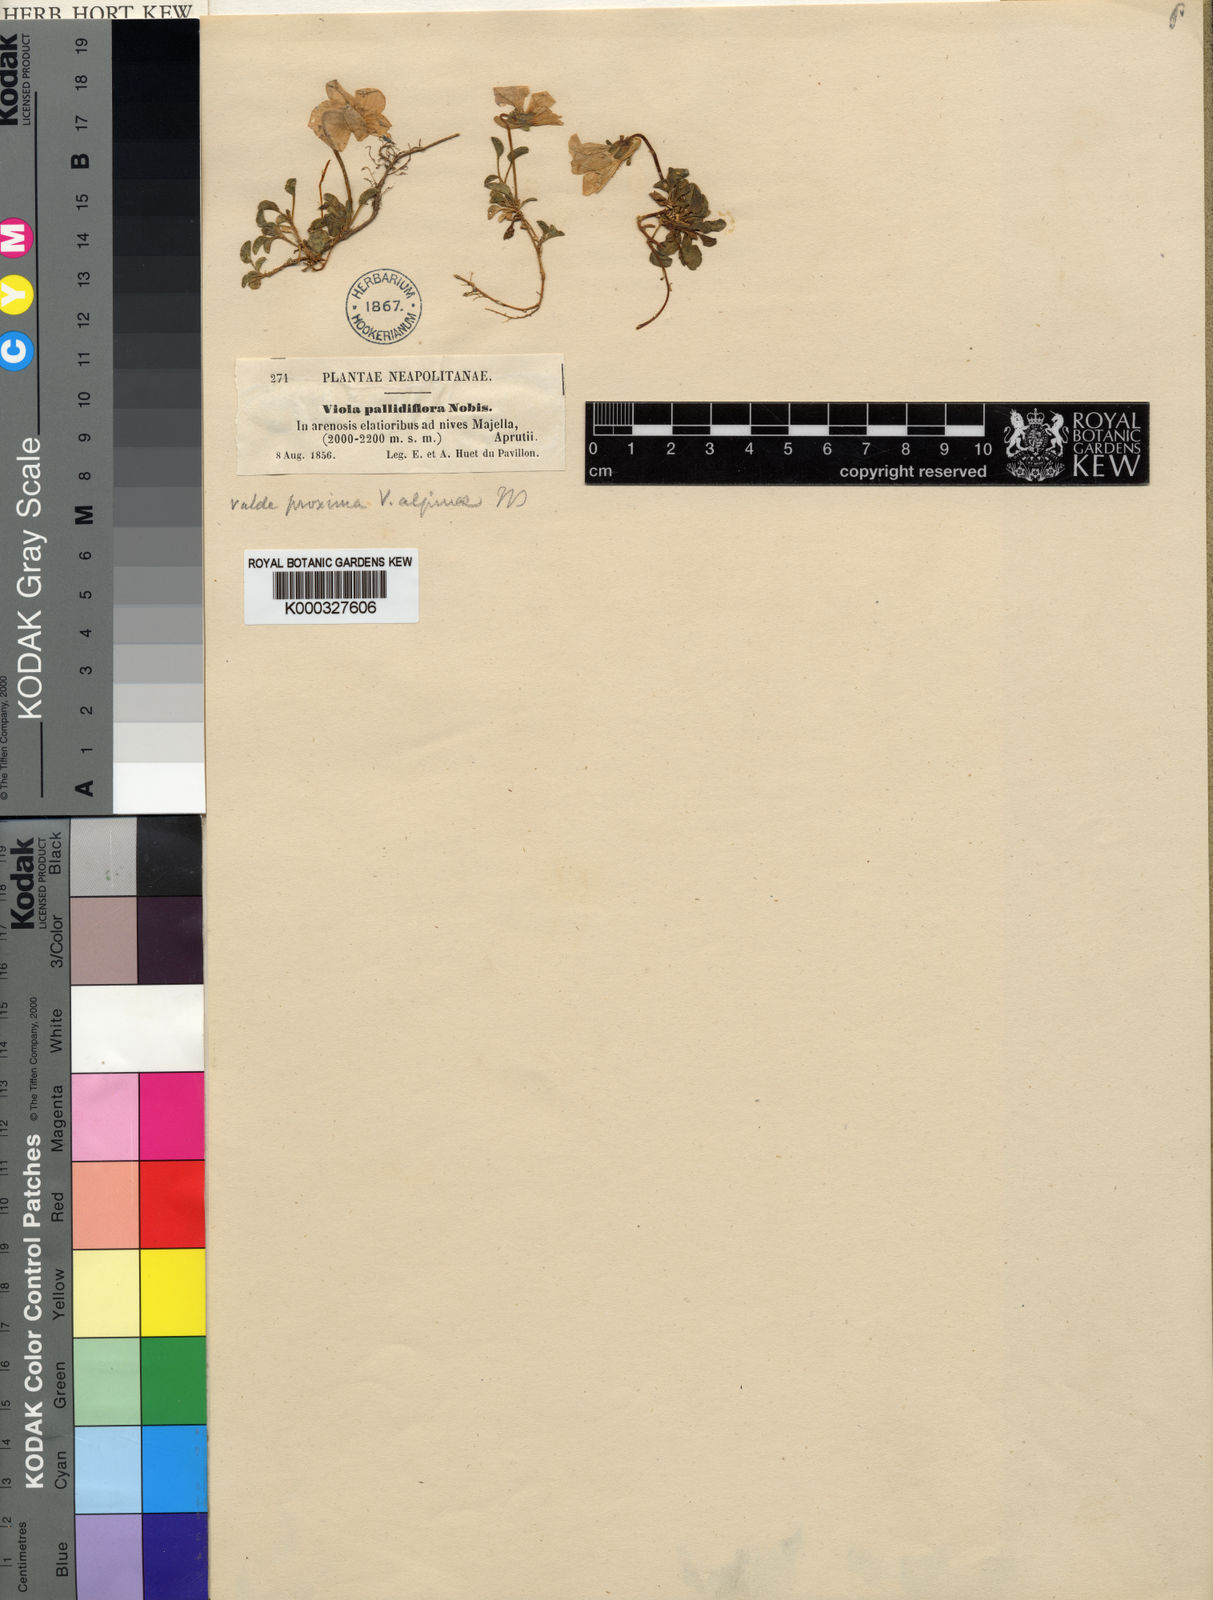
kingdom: Plantae
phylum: Tracheophyta
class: Magnoliopsida
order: Malpighiales
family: Violaceae
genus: Viola
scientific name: Viola magellensis
